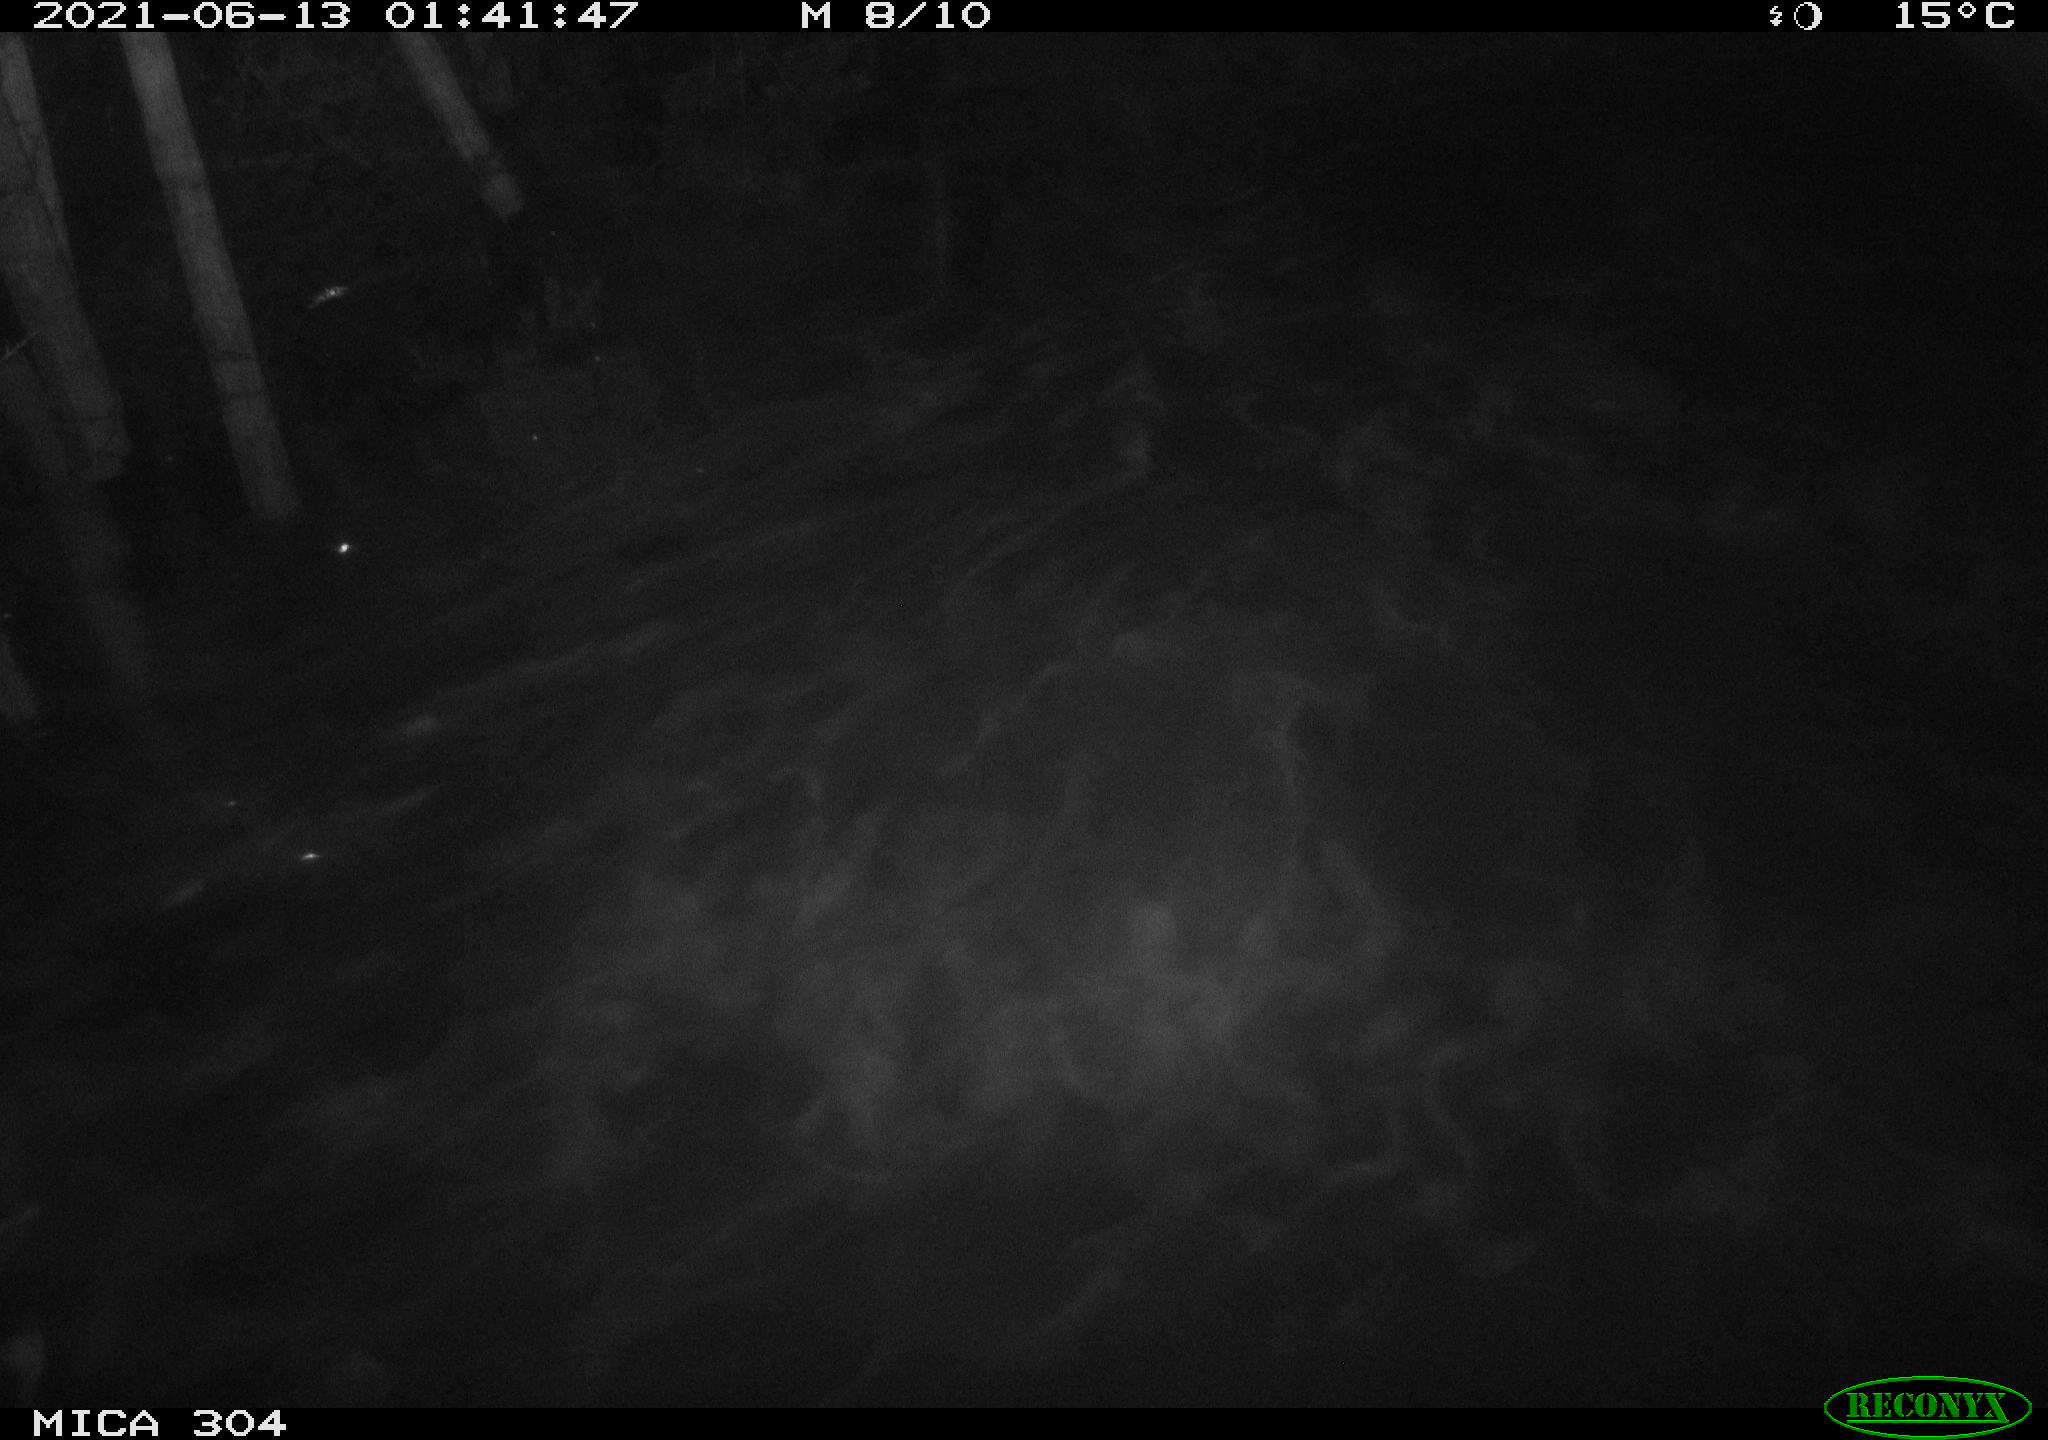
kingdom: Animalia
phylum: Chordata
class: Mammalia
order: Rodentia
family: Cricetidae
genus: Ondatra
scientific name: Ondatra zibethicus
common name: Muskrat
